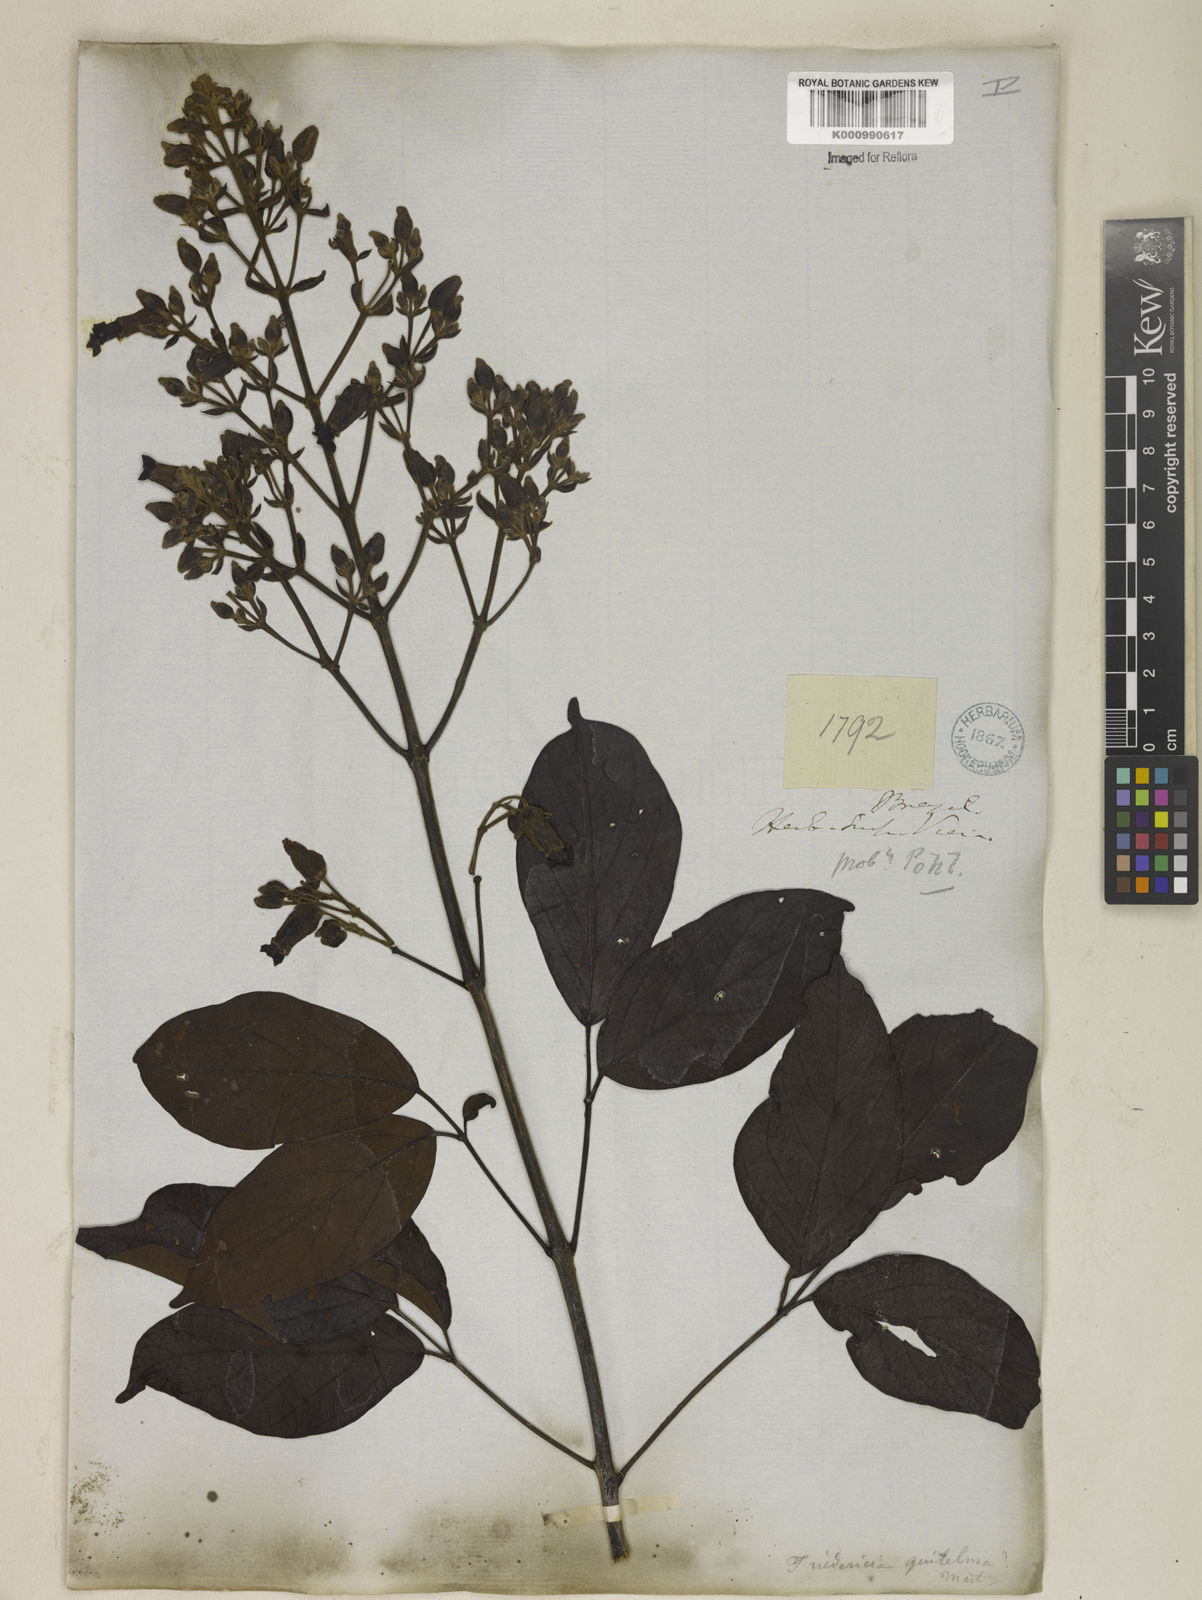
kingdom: Plantae
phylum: Tracheophyta
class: Magnoliopsida
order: Lamiales
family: Bignoniaceae
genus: Fridericia
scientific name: Fridericia speciosa
